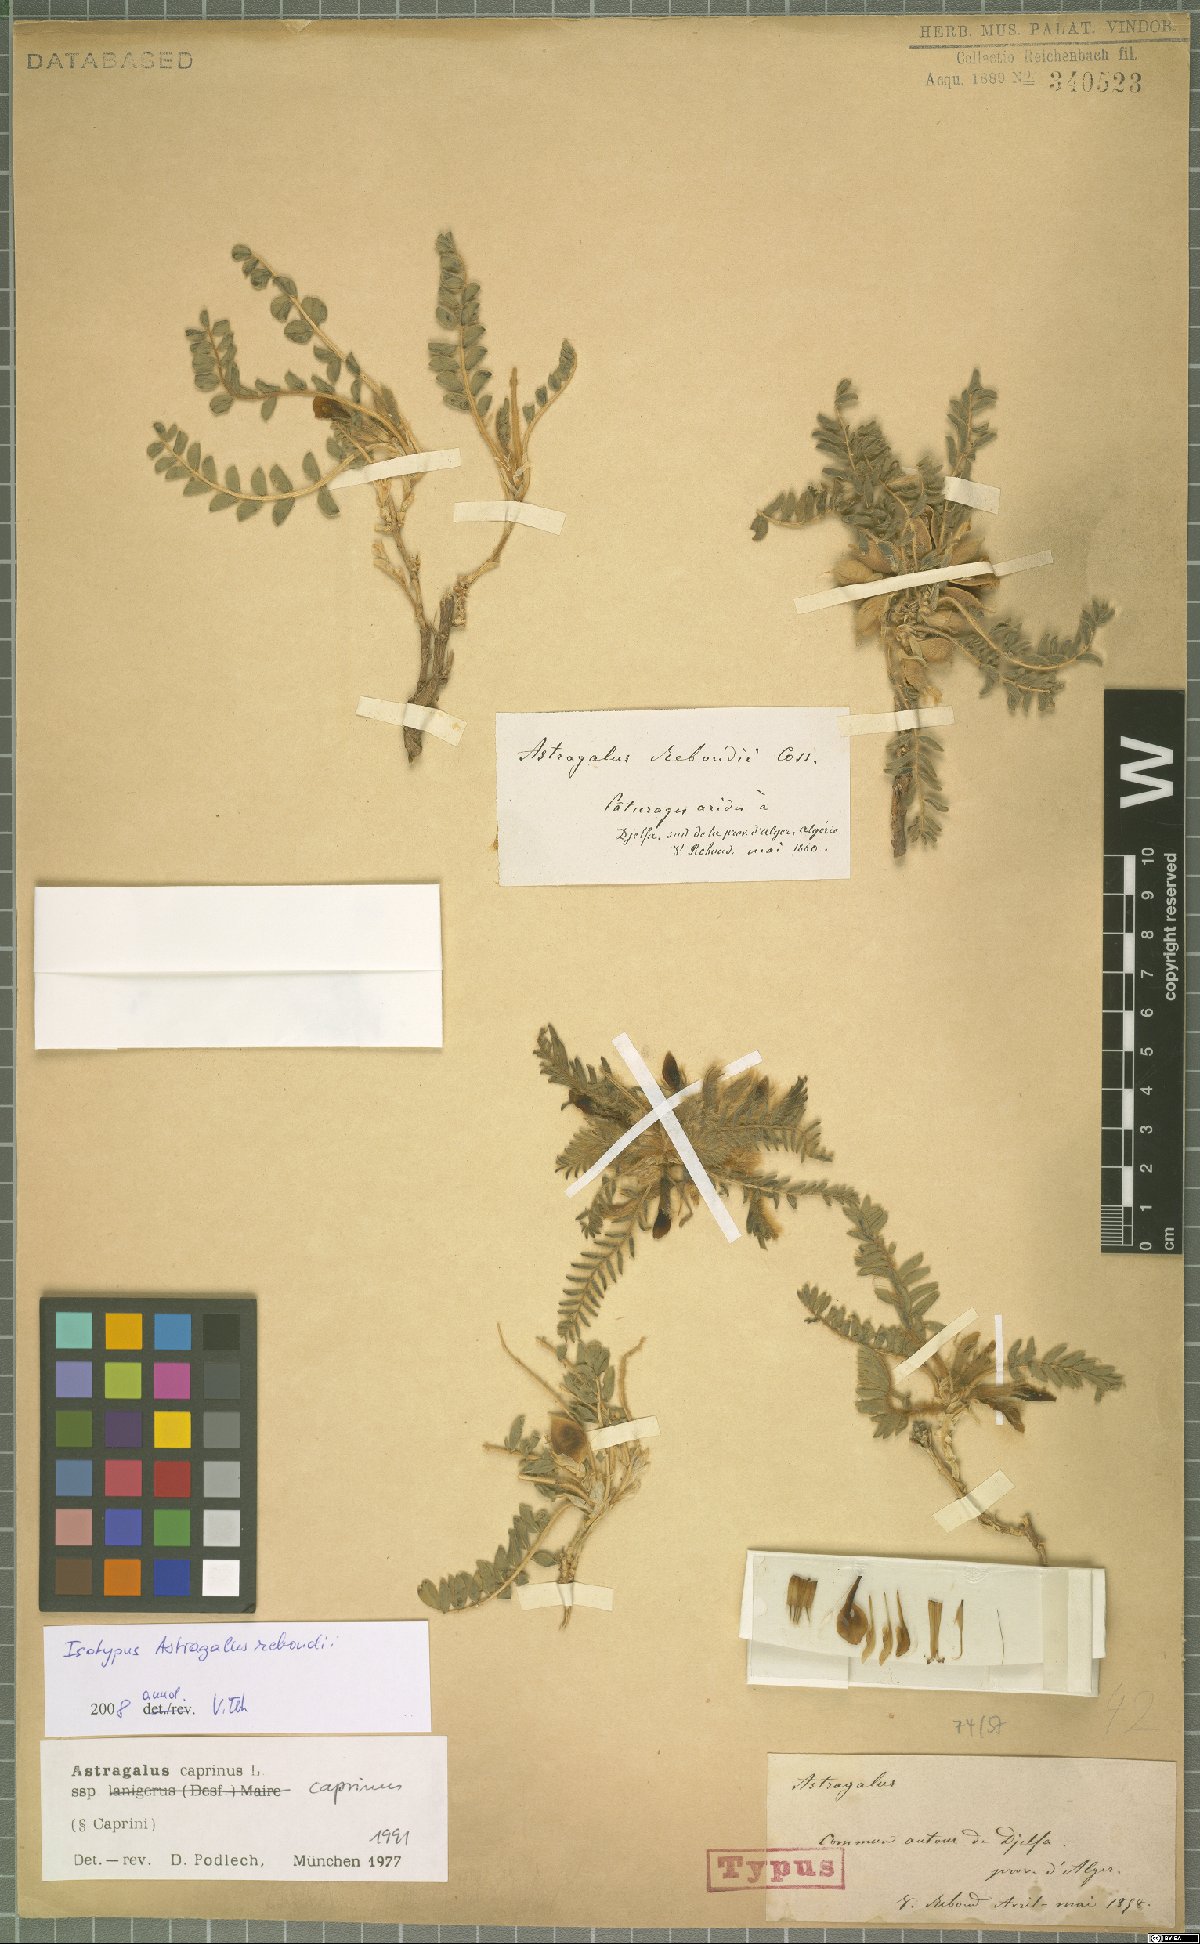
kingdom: Plantae
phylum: Tracheophyta
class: Magnoliopsida
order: Fabales
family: Fabaceae
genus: Astragalus
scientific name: Astragalus caprinus
